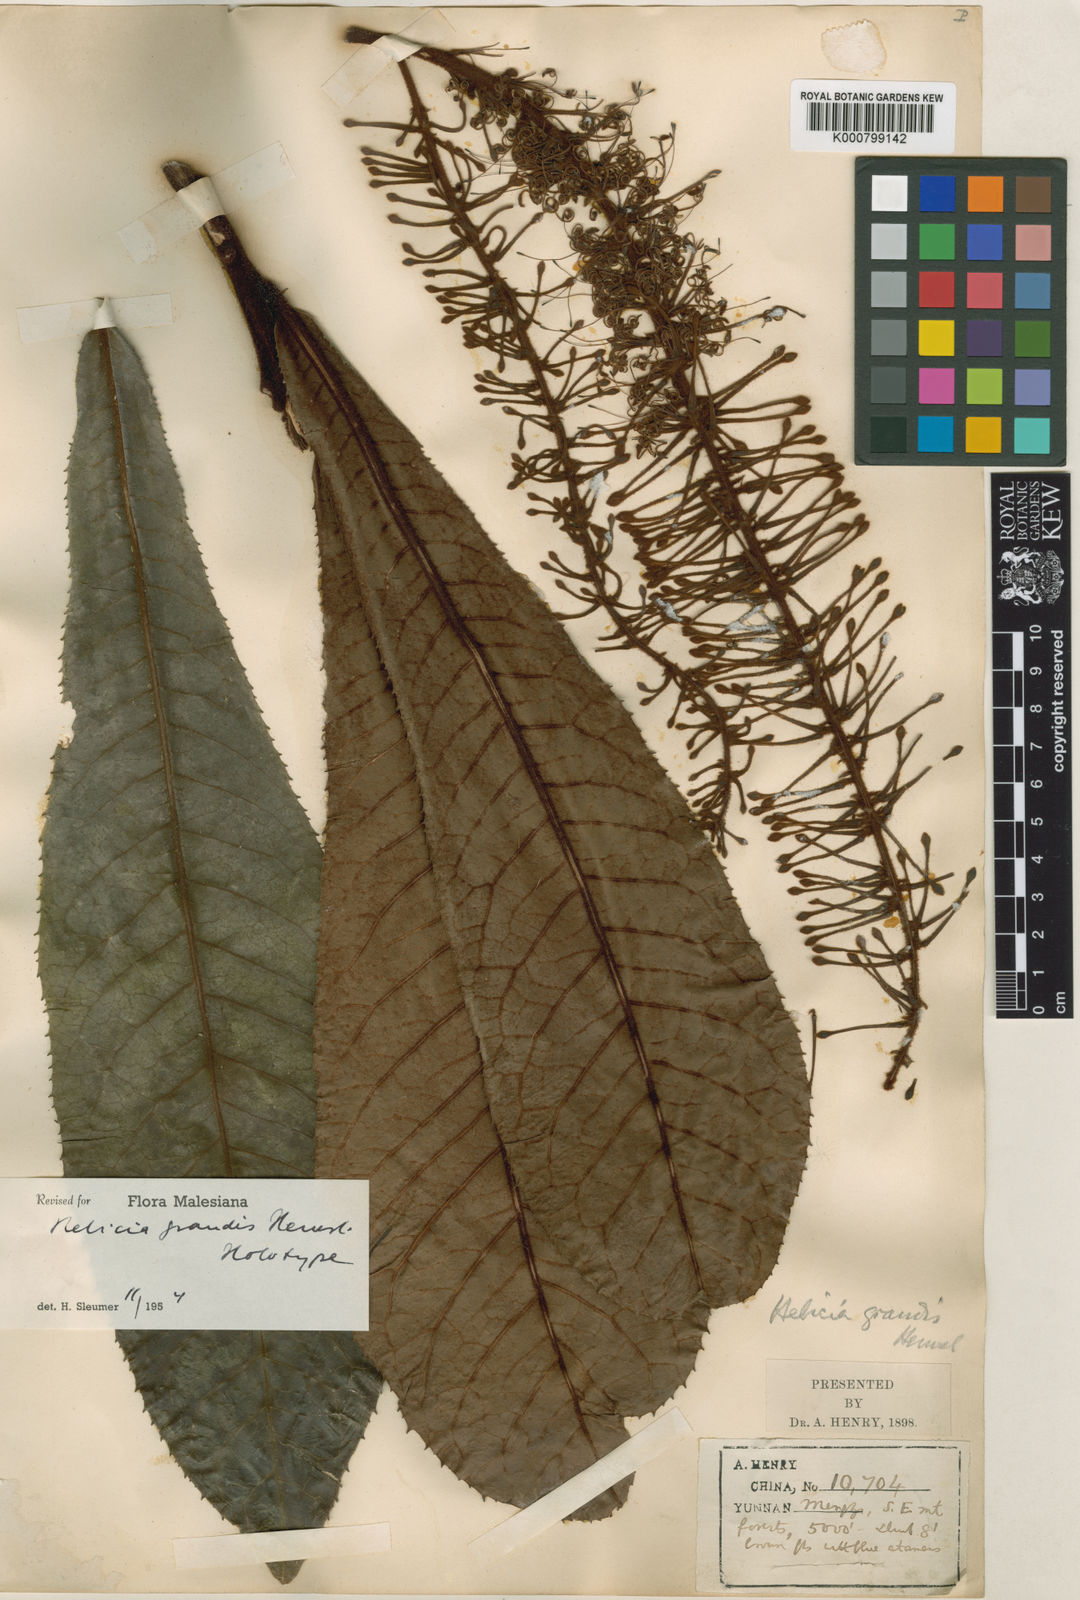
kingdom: Plantae
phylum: Tracheophyta
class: Magnoliopsida
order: Proteales
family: Proteaceae
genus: Helicia
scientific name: Helicia grandis
